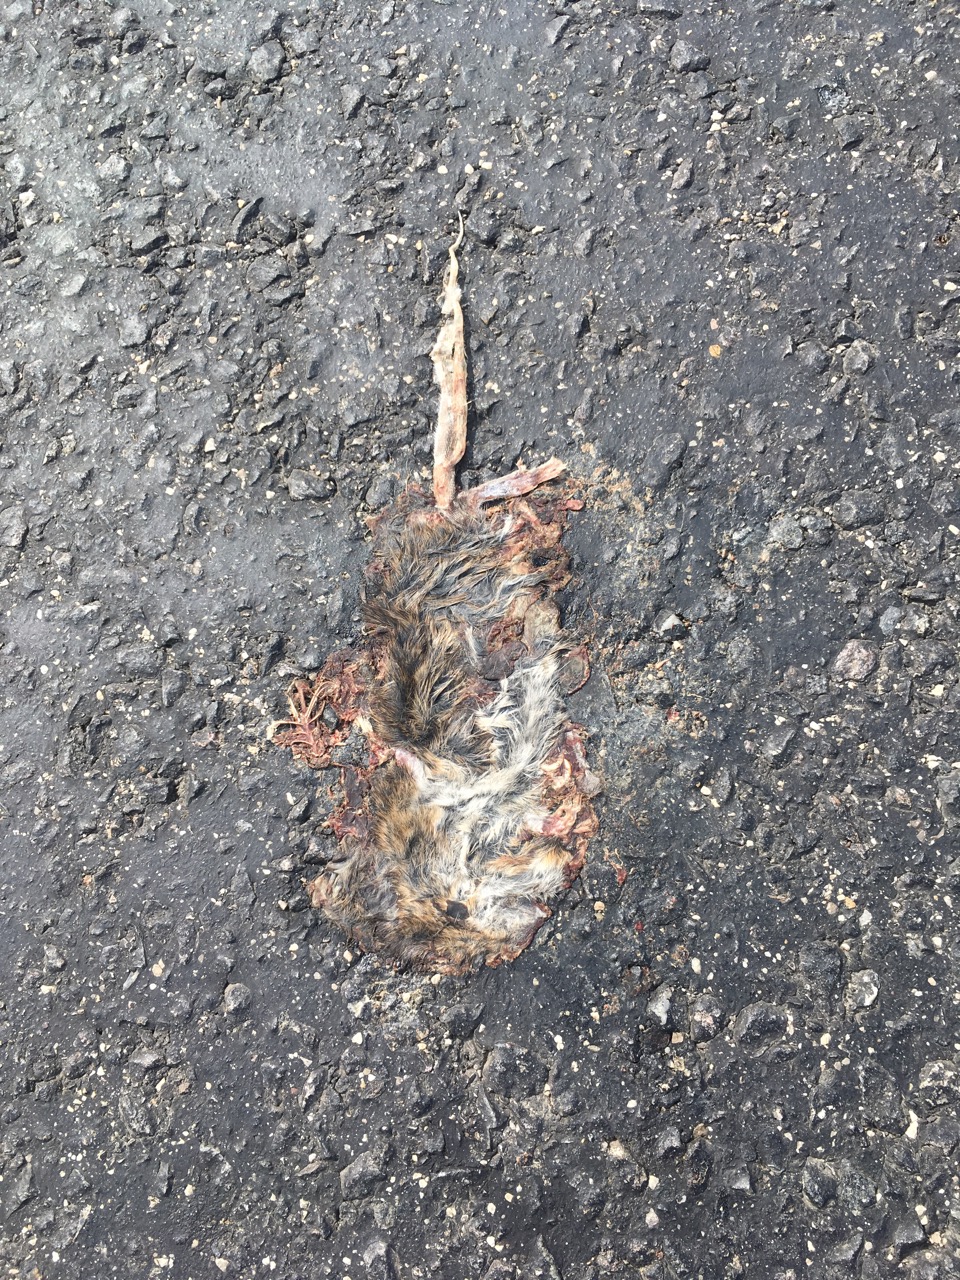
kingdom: Animalia
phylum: Chordata
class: Mammalia
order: Rodentia
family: Cricetidae
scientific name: Cricetidae
